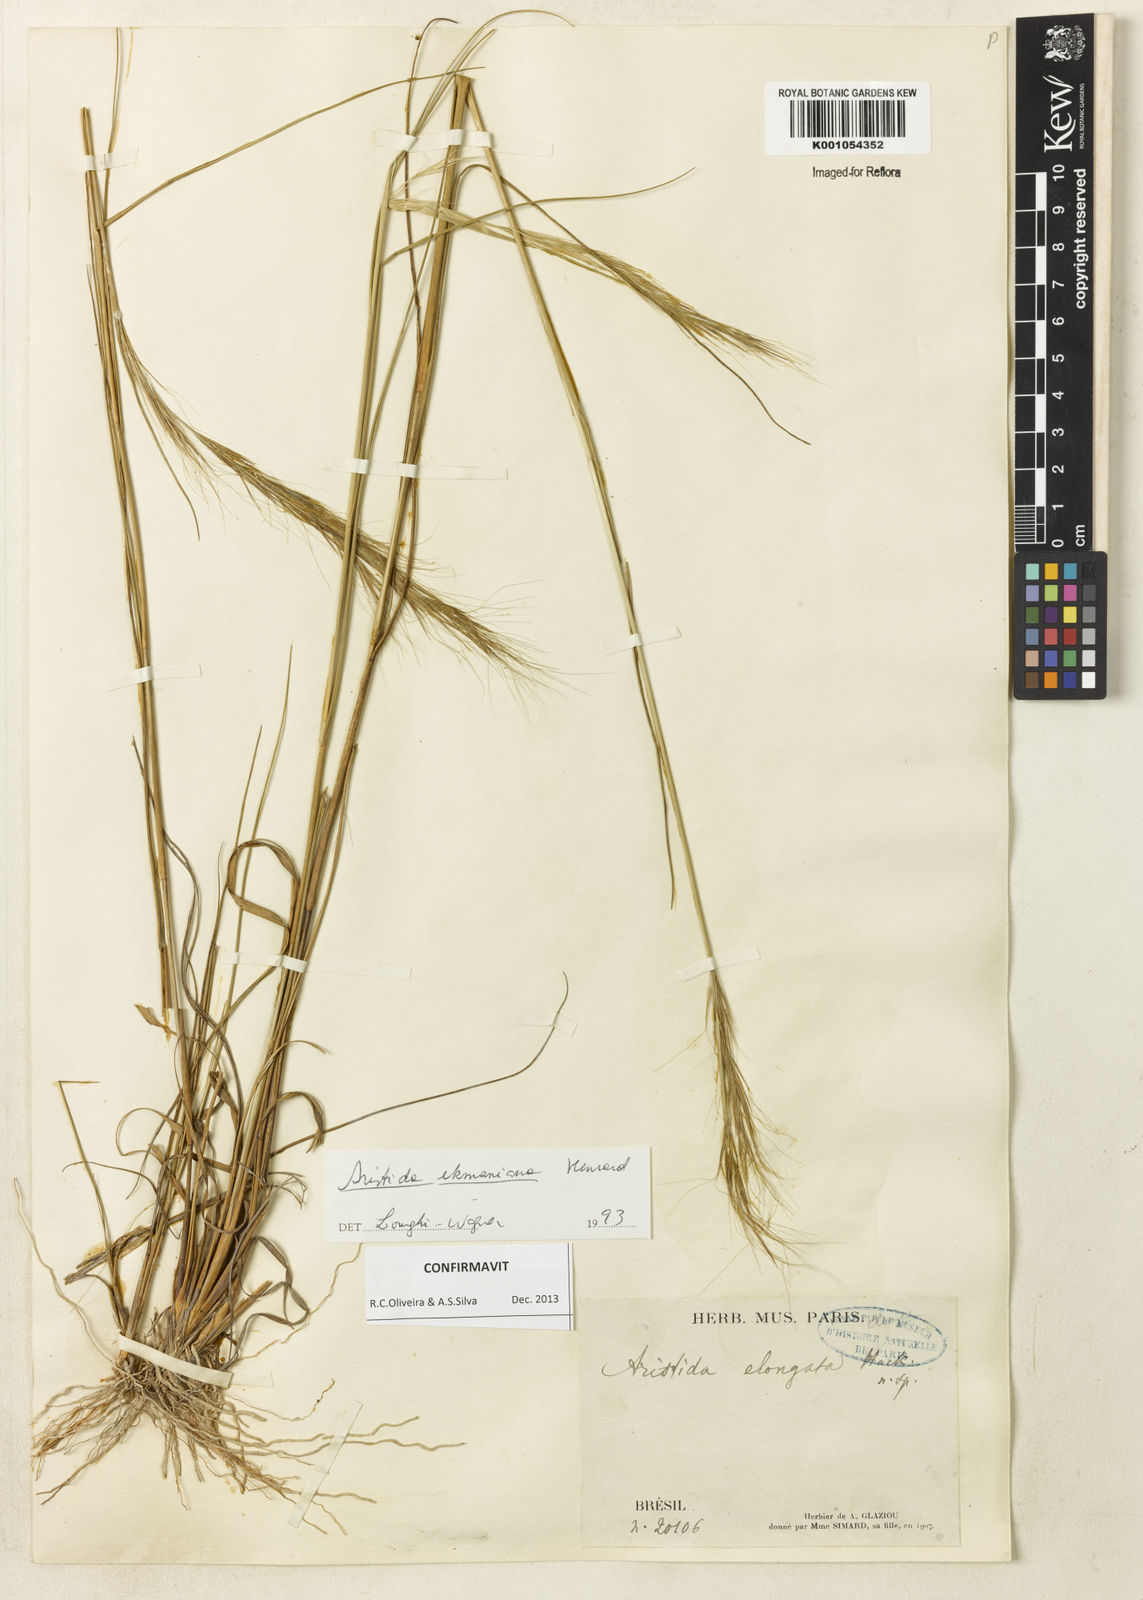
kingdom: Plantae
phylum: Tracheophyta
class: Liliopsida
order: Poales
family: Poaceae
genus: Aristida
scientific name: Aristida ekmaniana
